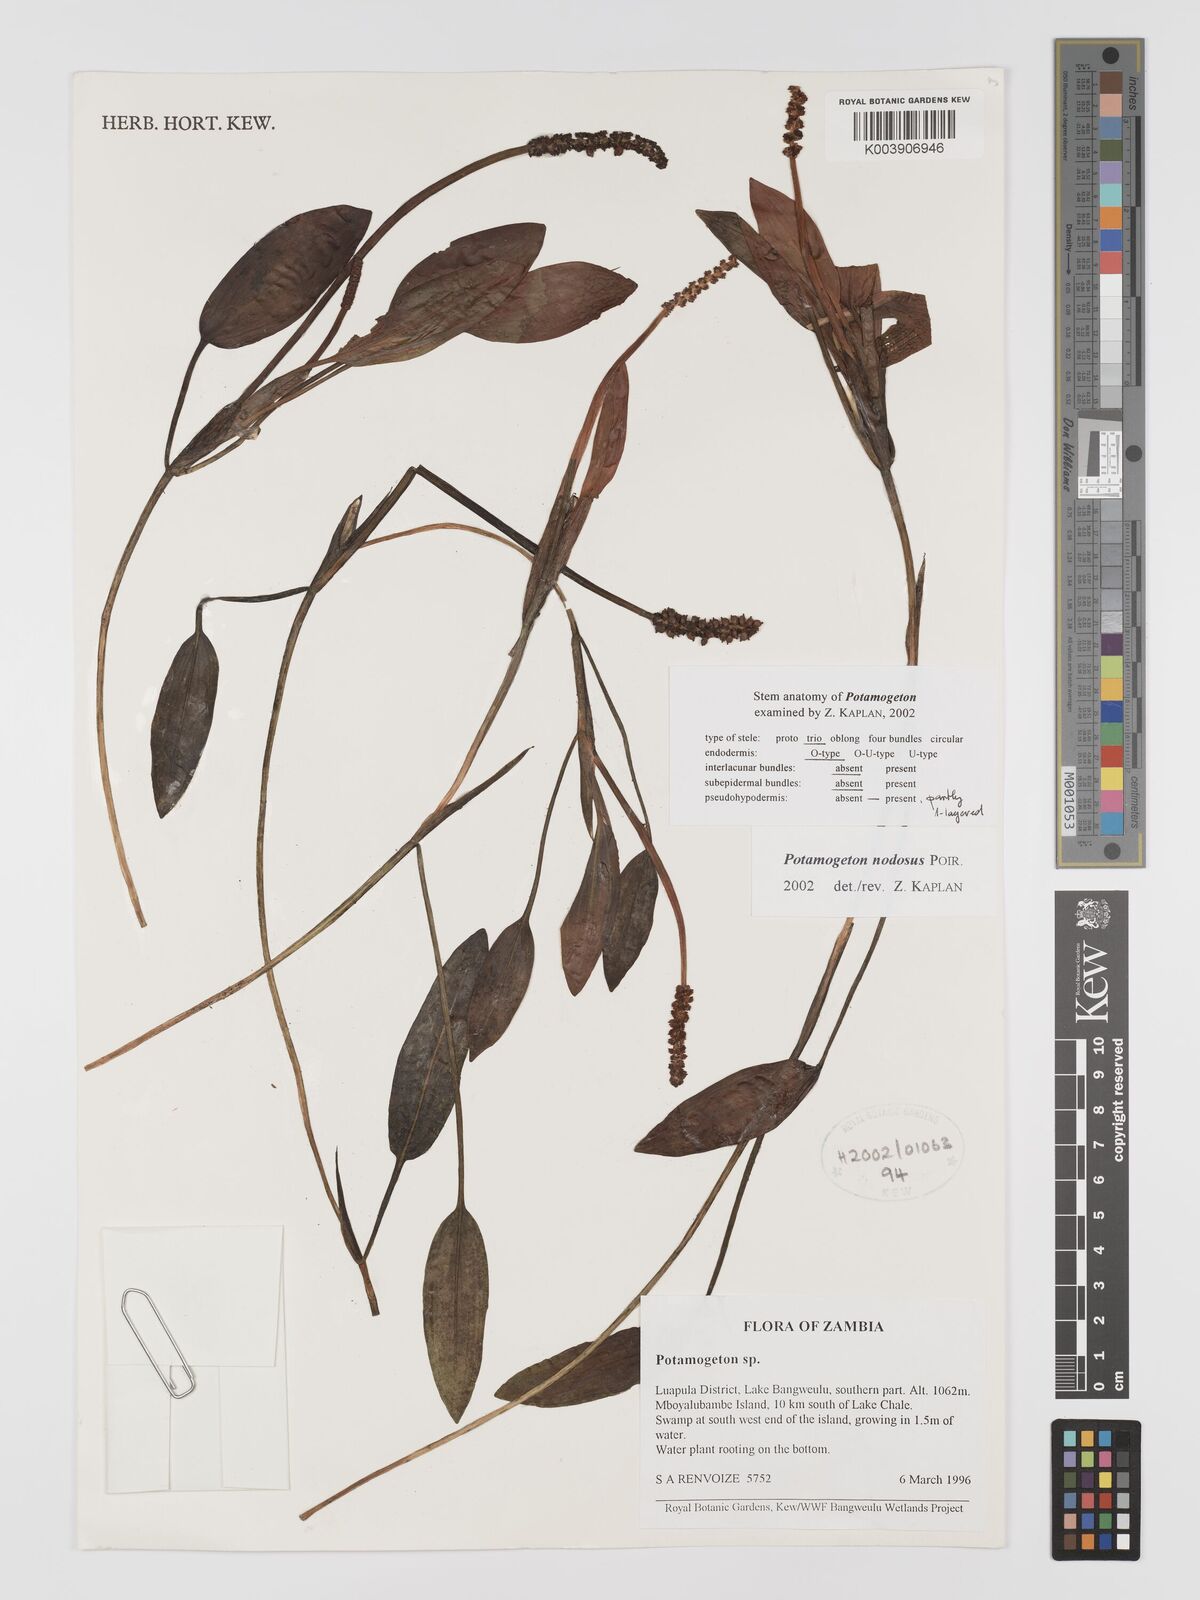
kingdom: Plantae
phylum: Tracheophyta
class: Liliopsida
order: Alismatales
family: Potamogetonaceae
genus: Potamogeton
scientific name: Potamogeton nodosus
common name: Loddon pondweed
